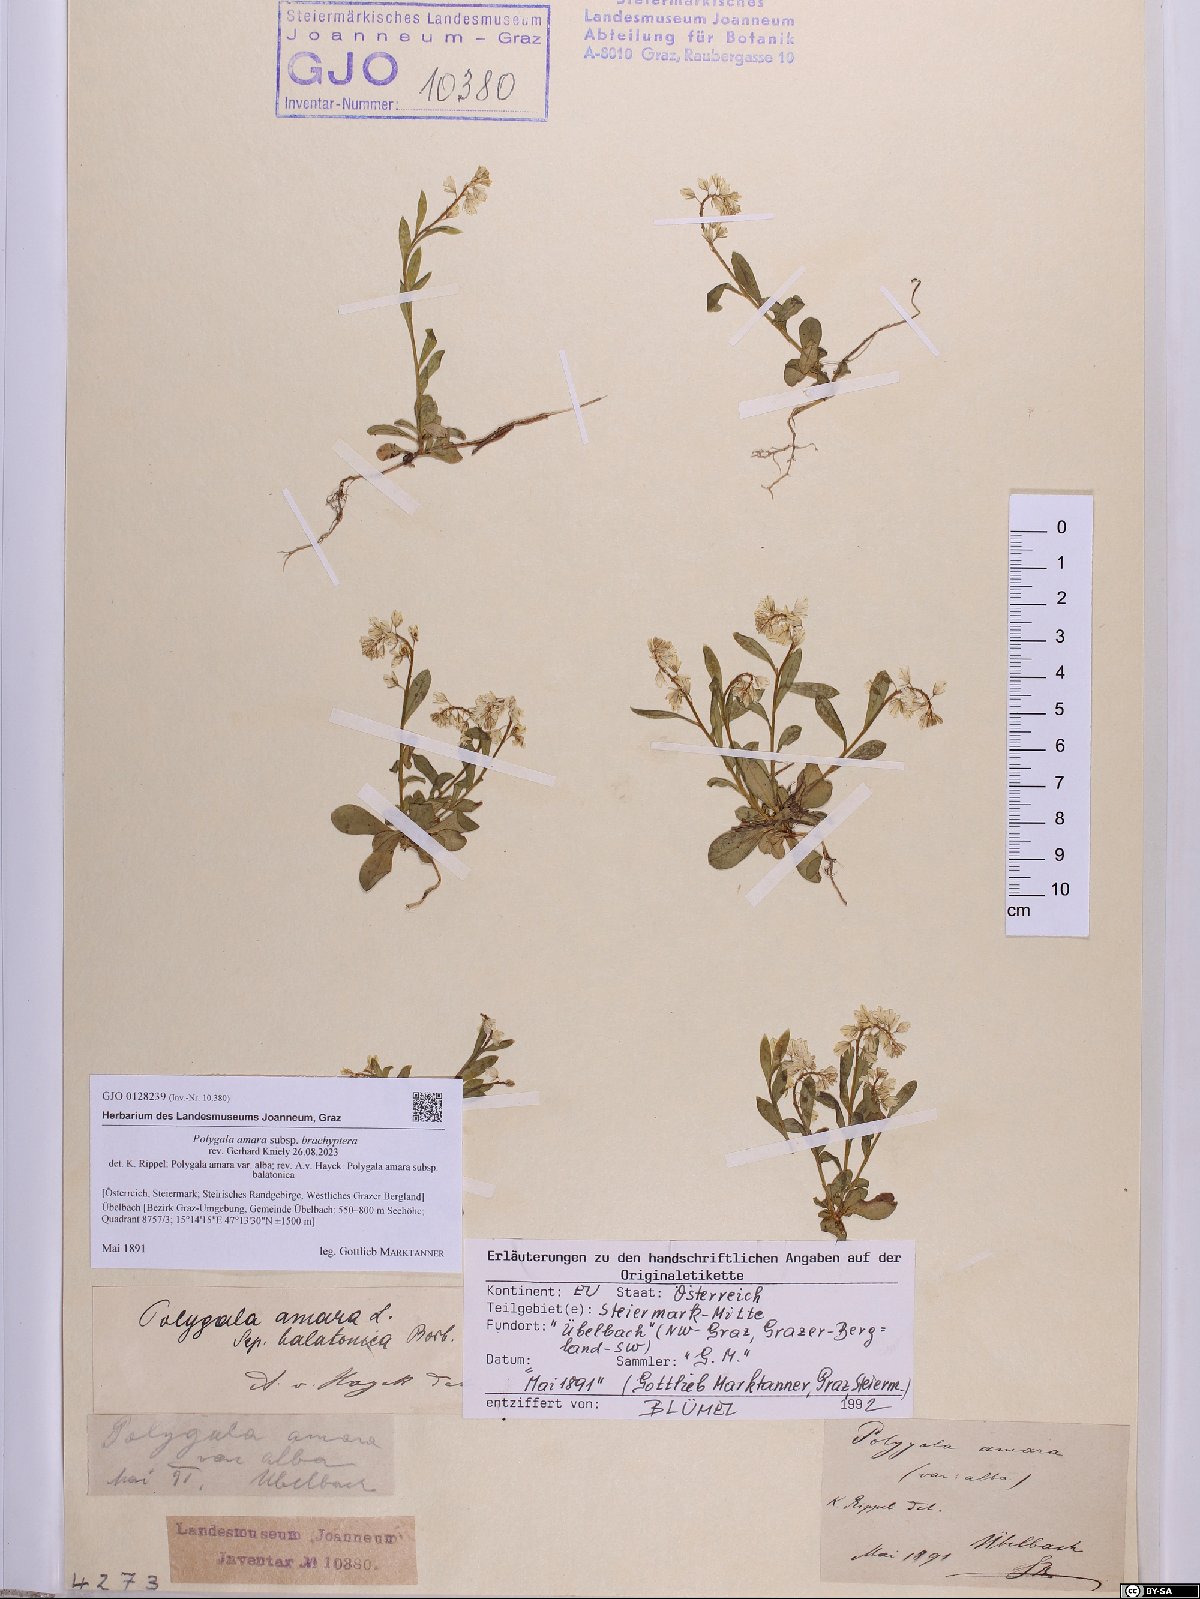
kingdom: Plantae
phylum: Tracheophyta
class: Magnoliopsida
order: Fabales
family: Polygalaceae
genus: Polygala
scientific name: Polygala amara
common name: Milkwort
